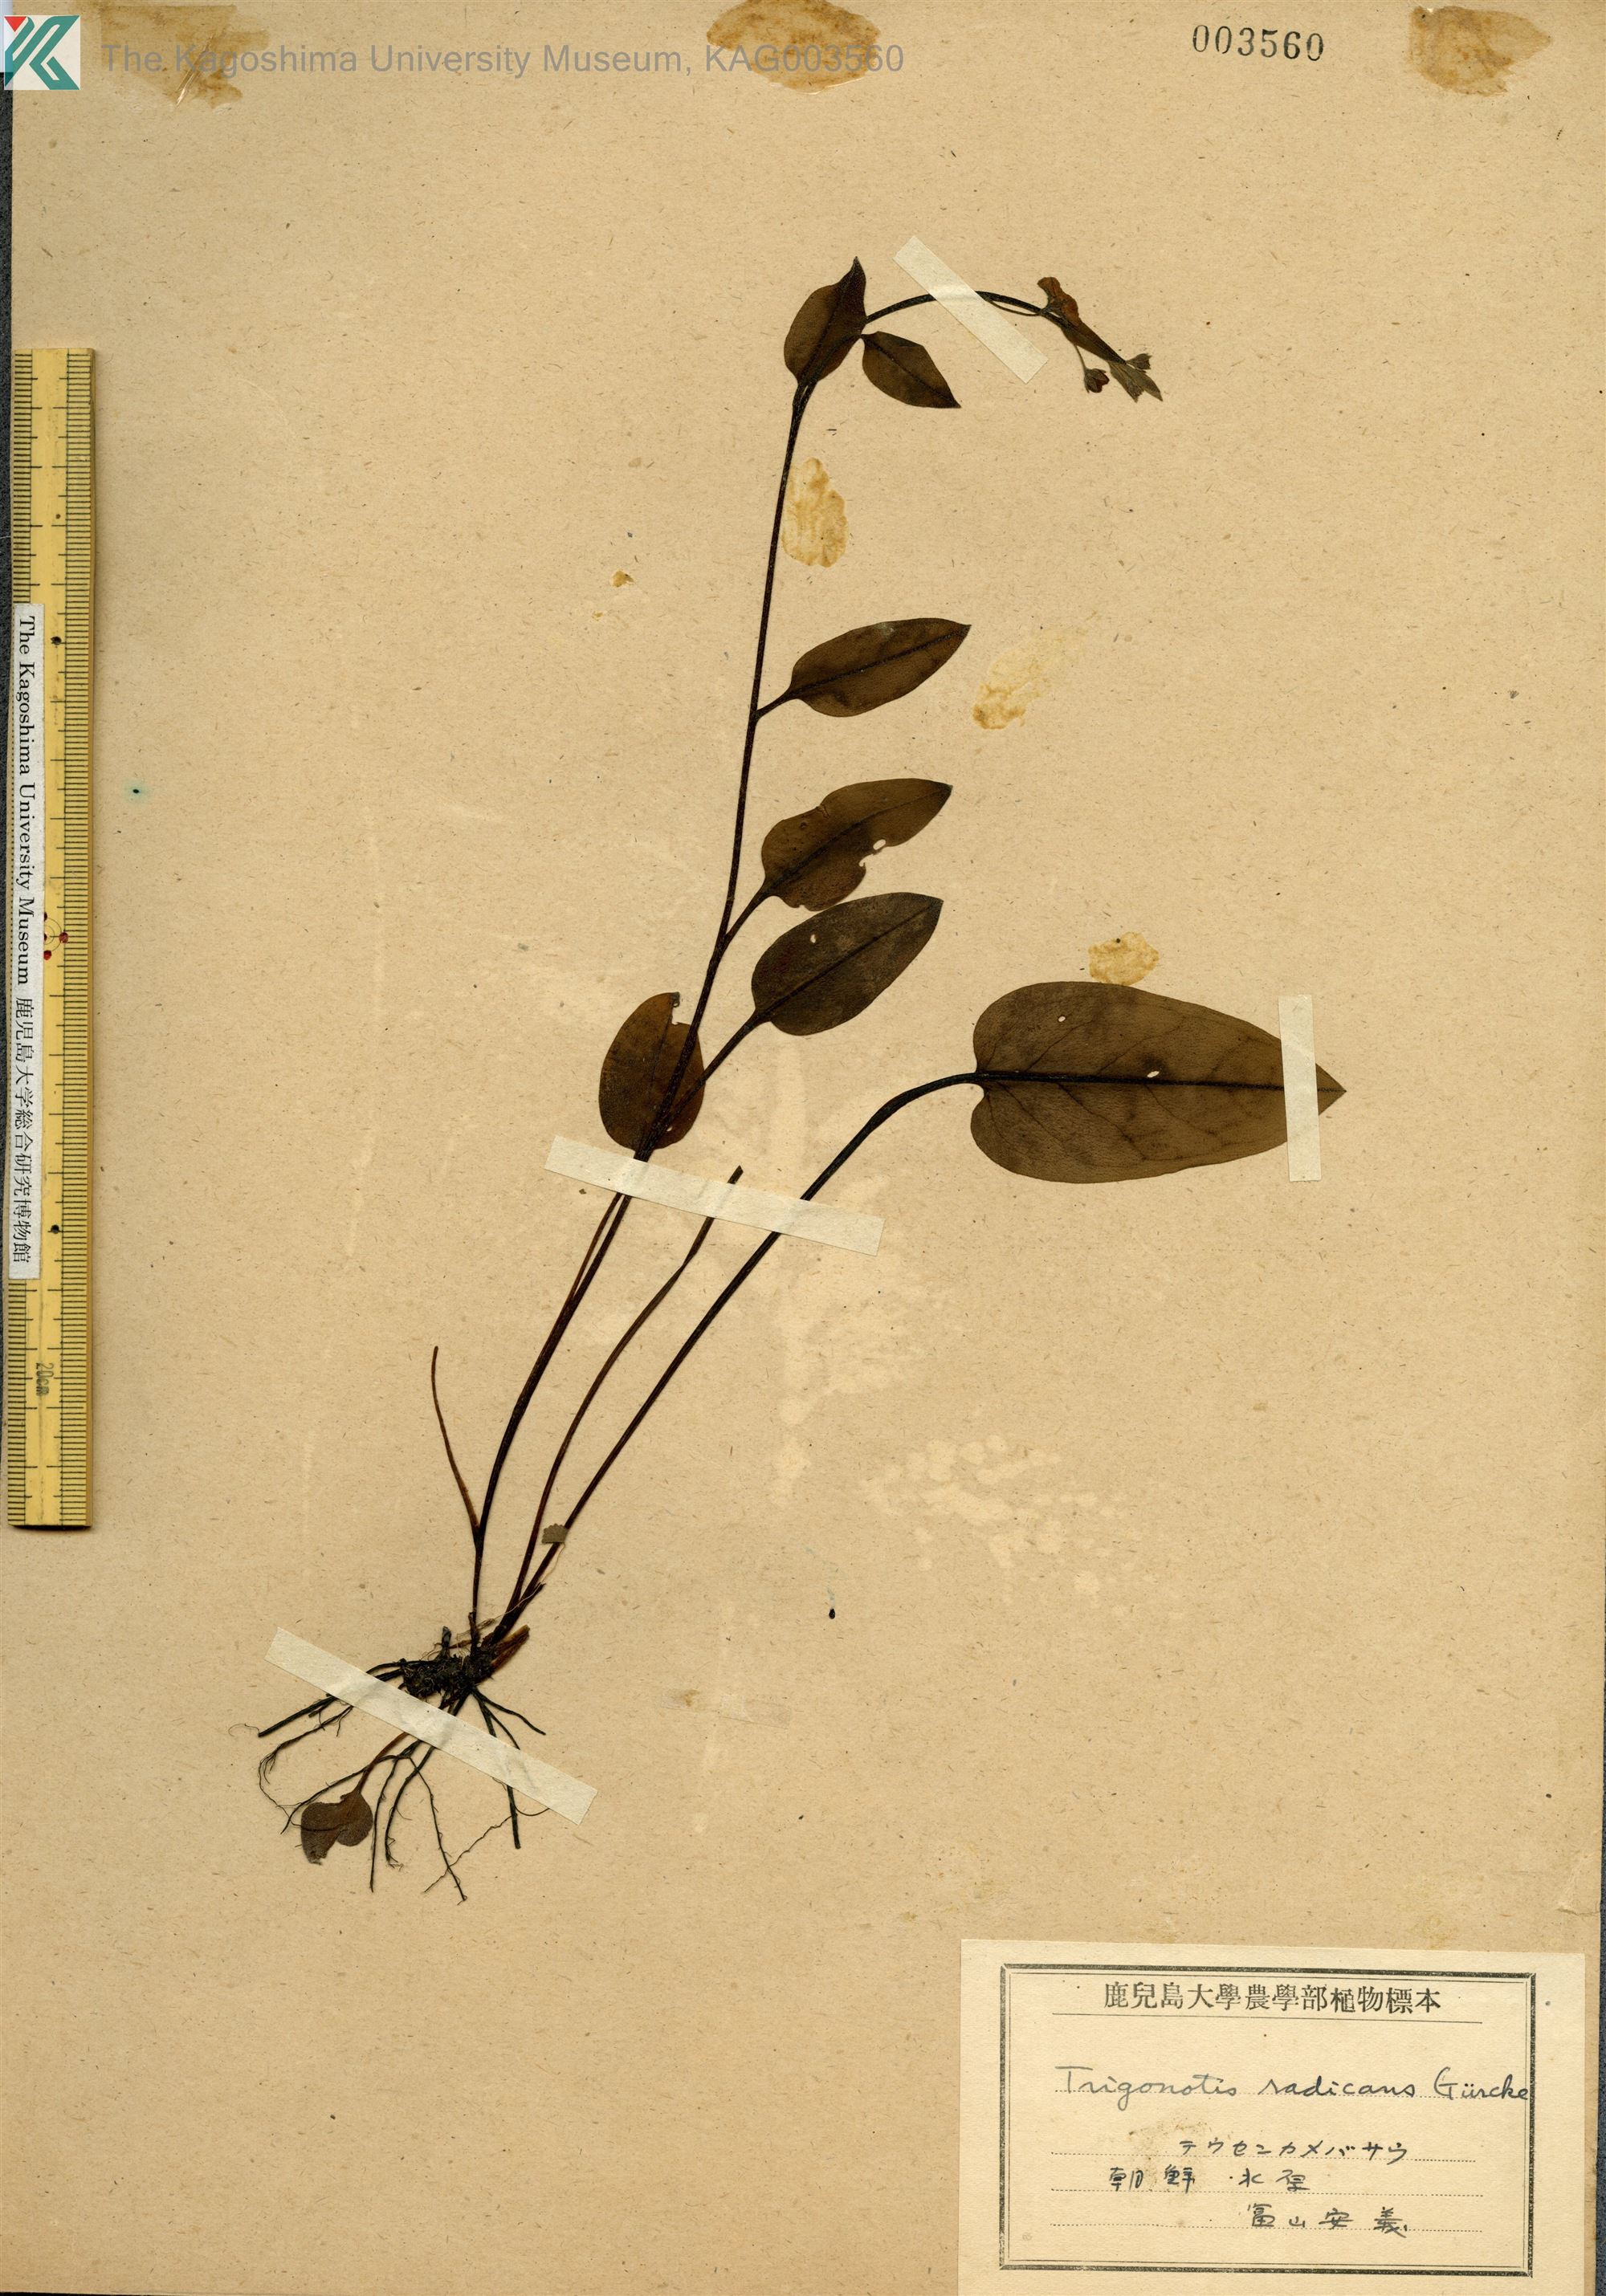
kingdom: Plantae
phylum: Tracheophyta
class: Magnoliopsida
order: Boraginales
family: Boraginaceae
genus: Trigonotis
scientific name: Trigonotis radicans
